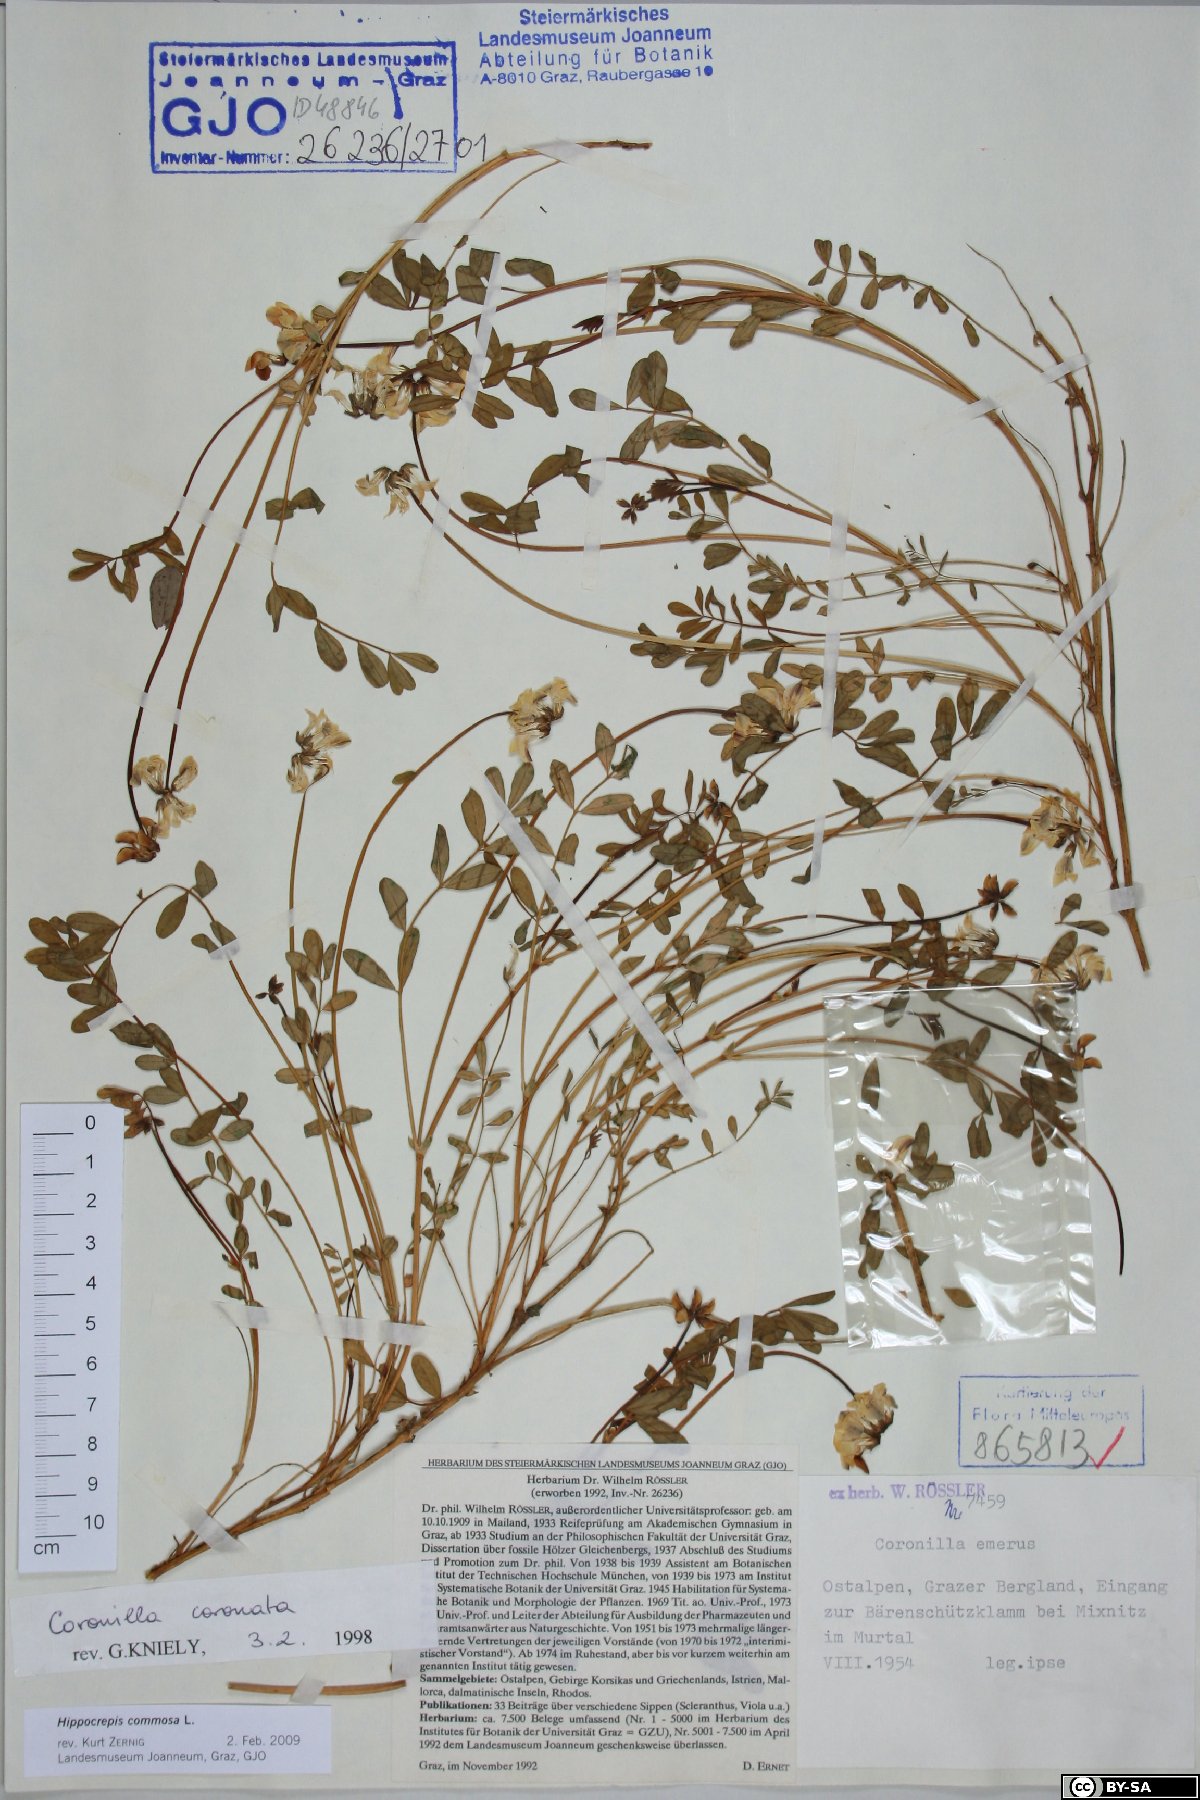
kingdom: Plantae
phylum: Tracheophyta
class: Magnoliopsida
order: Fabales
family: Fabaceae
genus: Coronilla
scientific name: Coronilla coronata
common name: Scorpion-vetch
